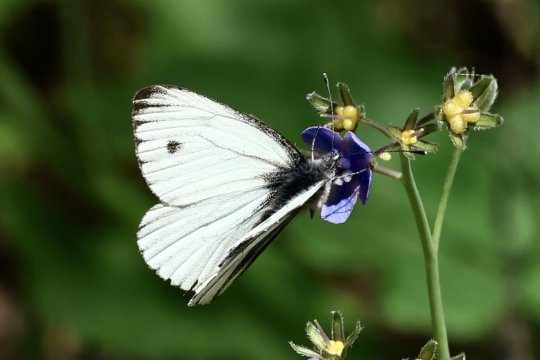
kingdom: Animalia
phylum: Arthropoda
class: Insecta
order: Lepidoptera
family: Pieridae
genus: Pieris
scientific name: Pieris marginalis
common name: Margined White
